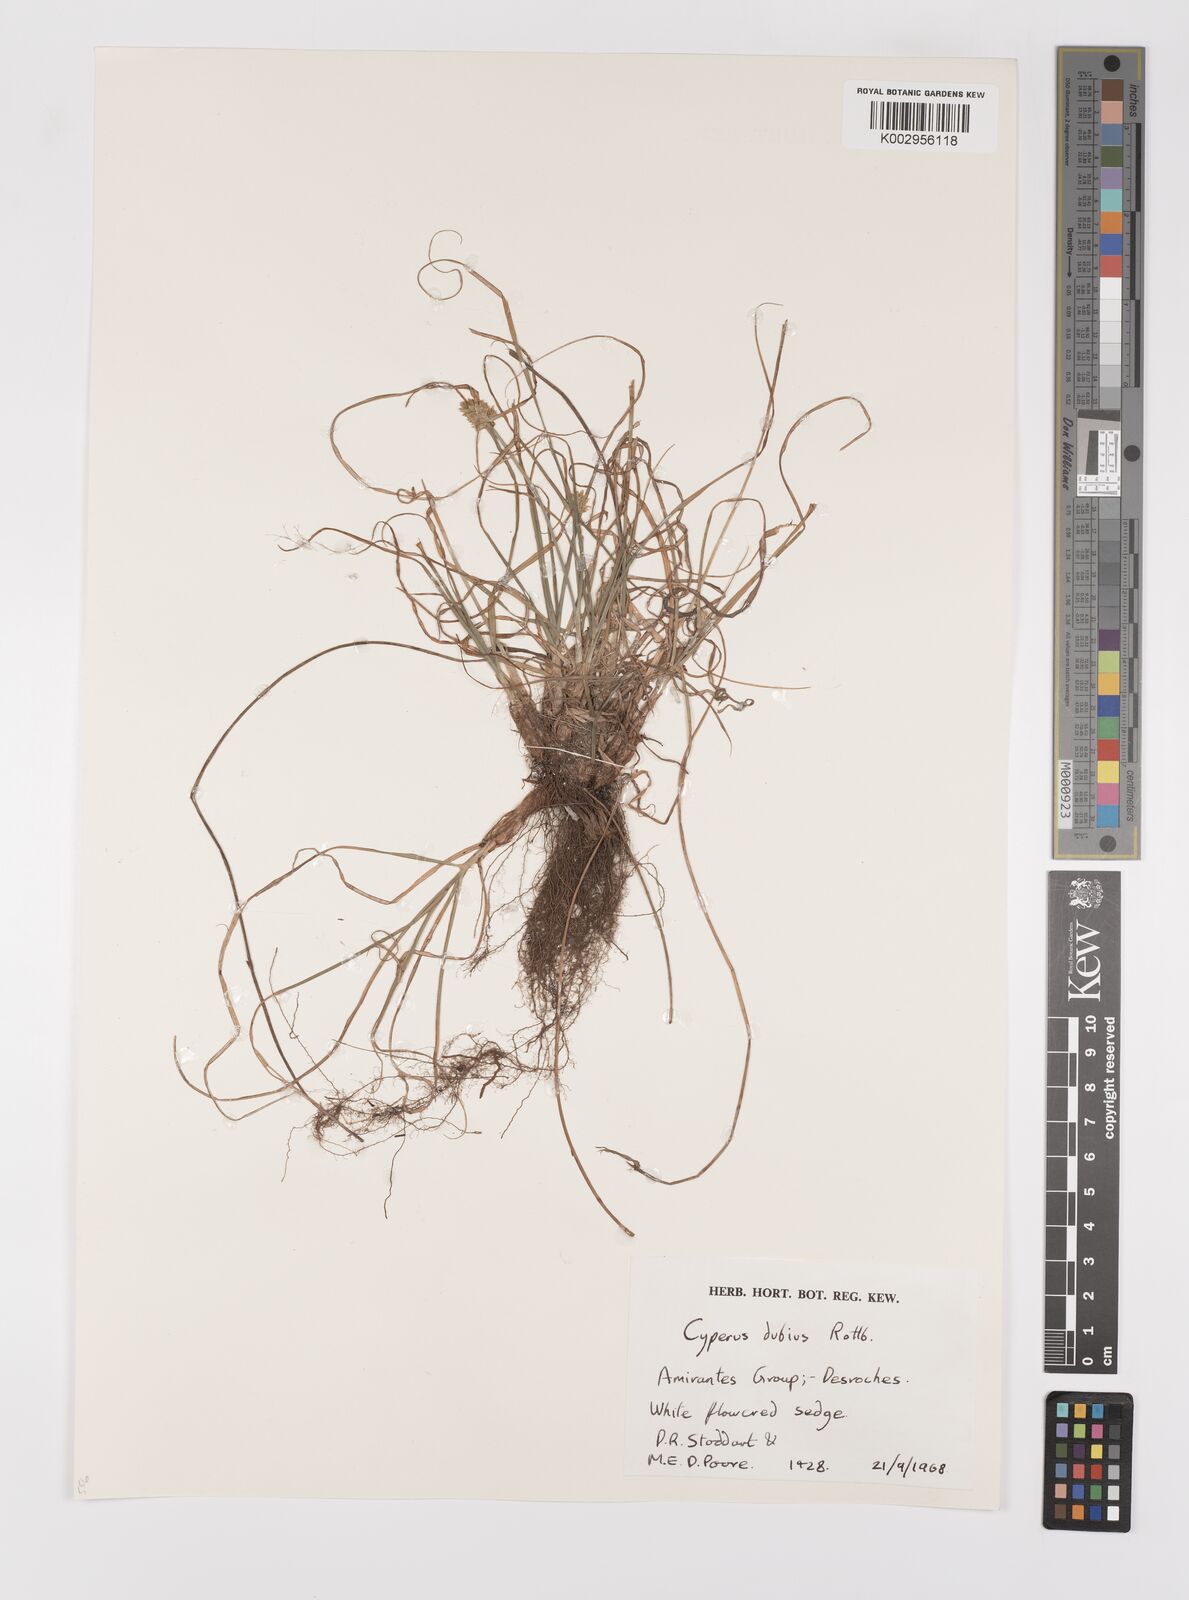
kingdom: Plantae
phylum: Tracheophyta
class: Liliopsida
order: Poales
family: Cyperaceae
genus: Cyperus
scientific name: Cyperus dubius
